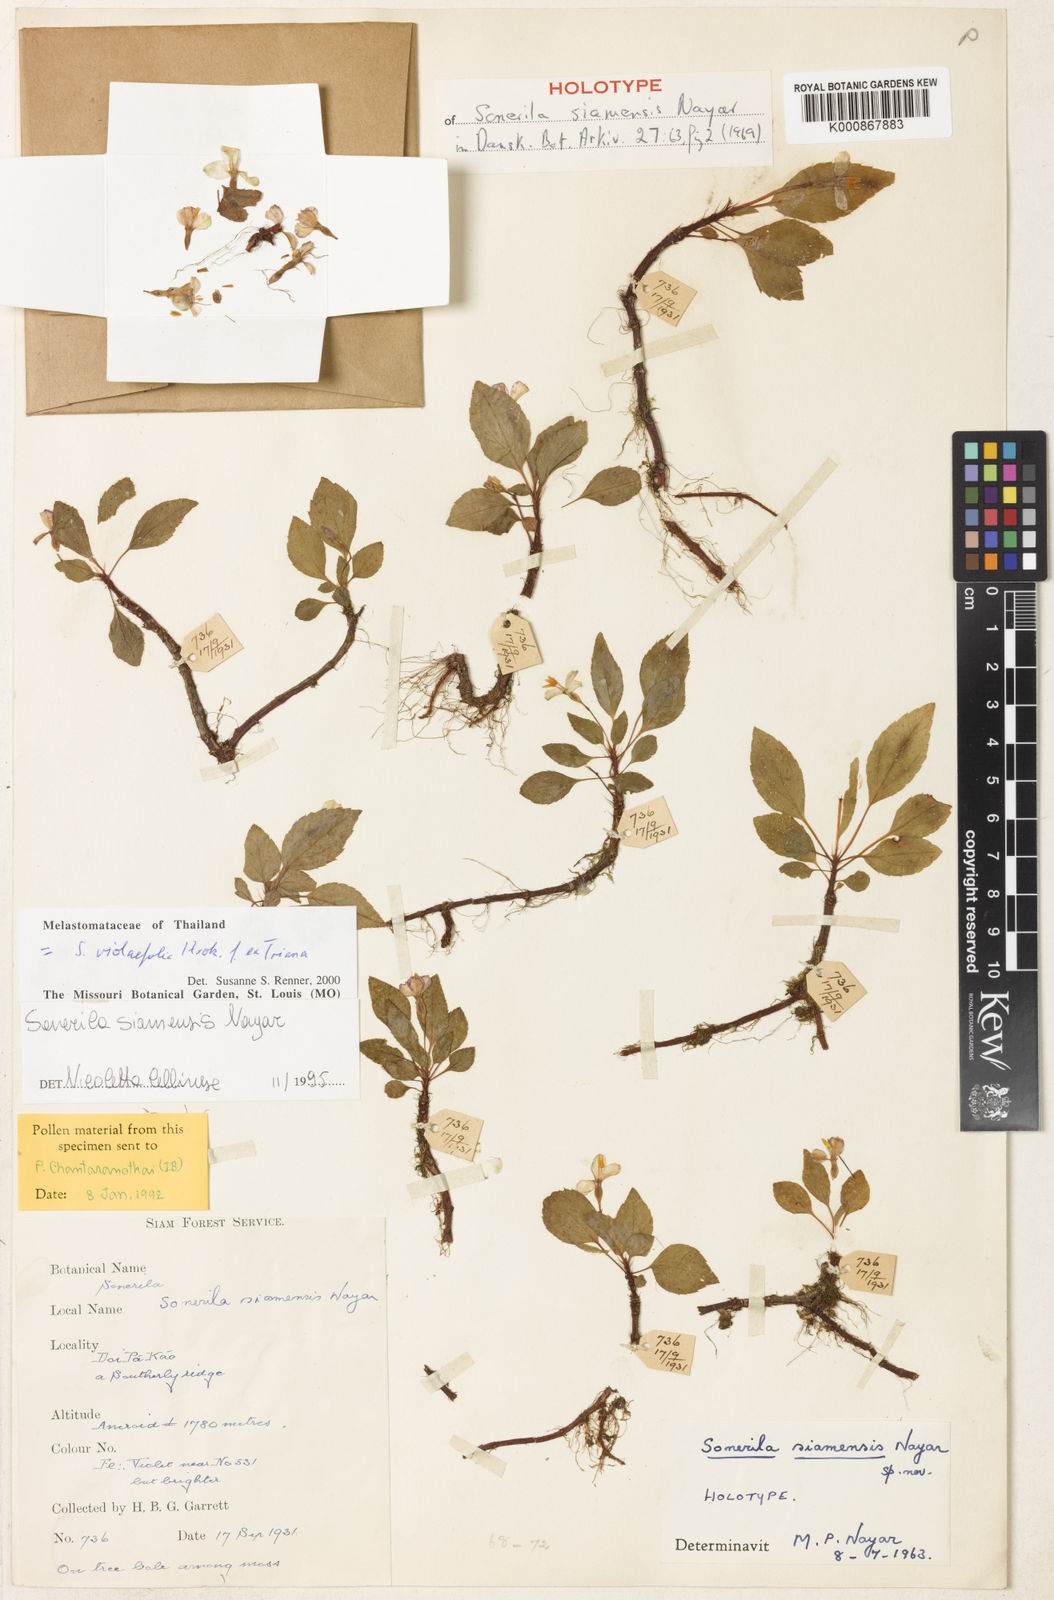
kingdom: Plantae
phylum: Tracheophyta
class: Magnoliopsida
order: Myrtales
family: Melastomataceae
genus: Sonerila
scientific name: Sonerila violifolia
